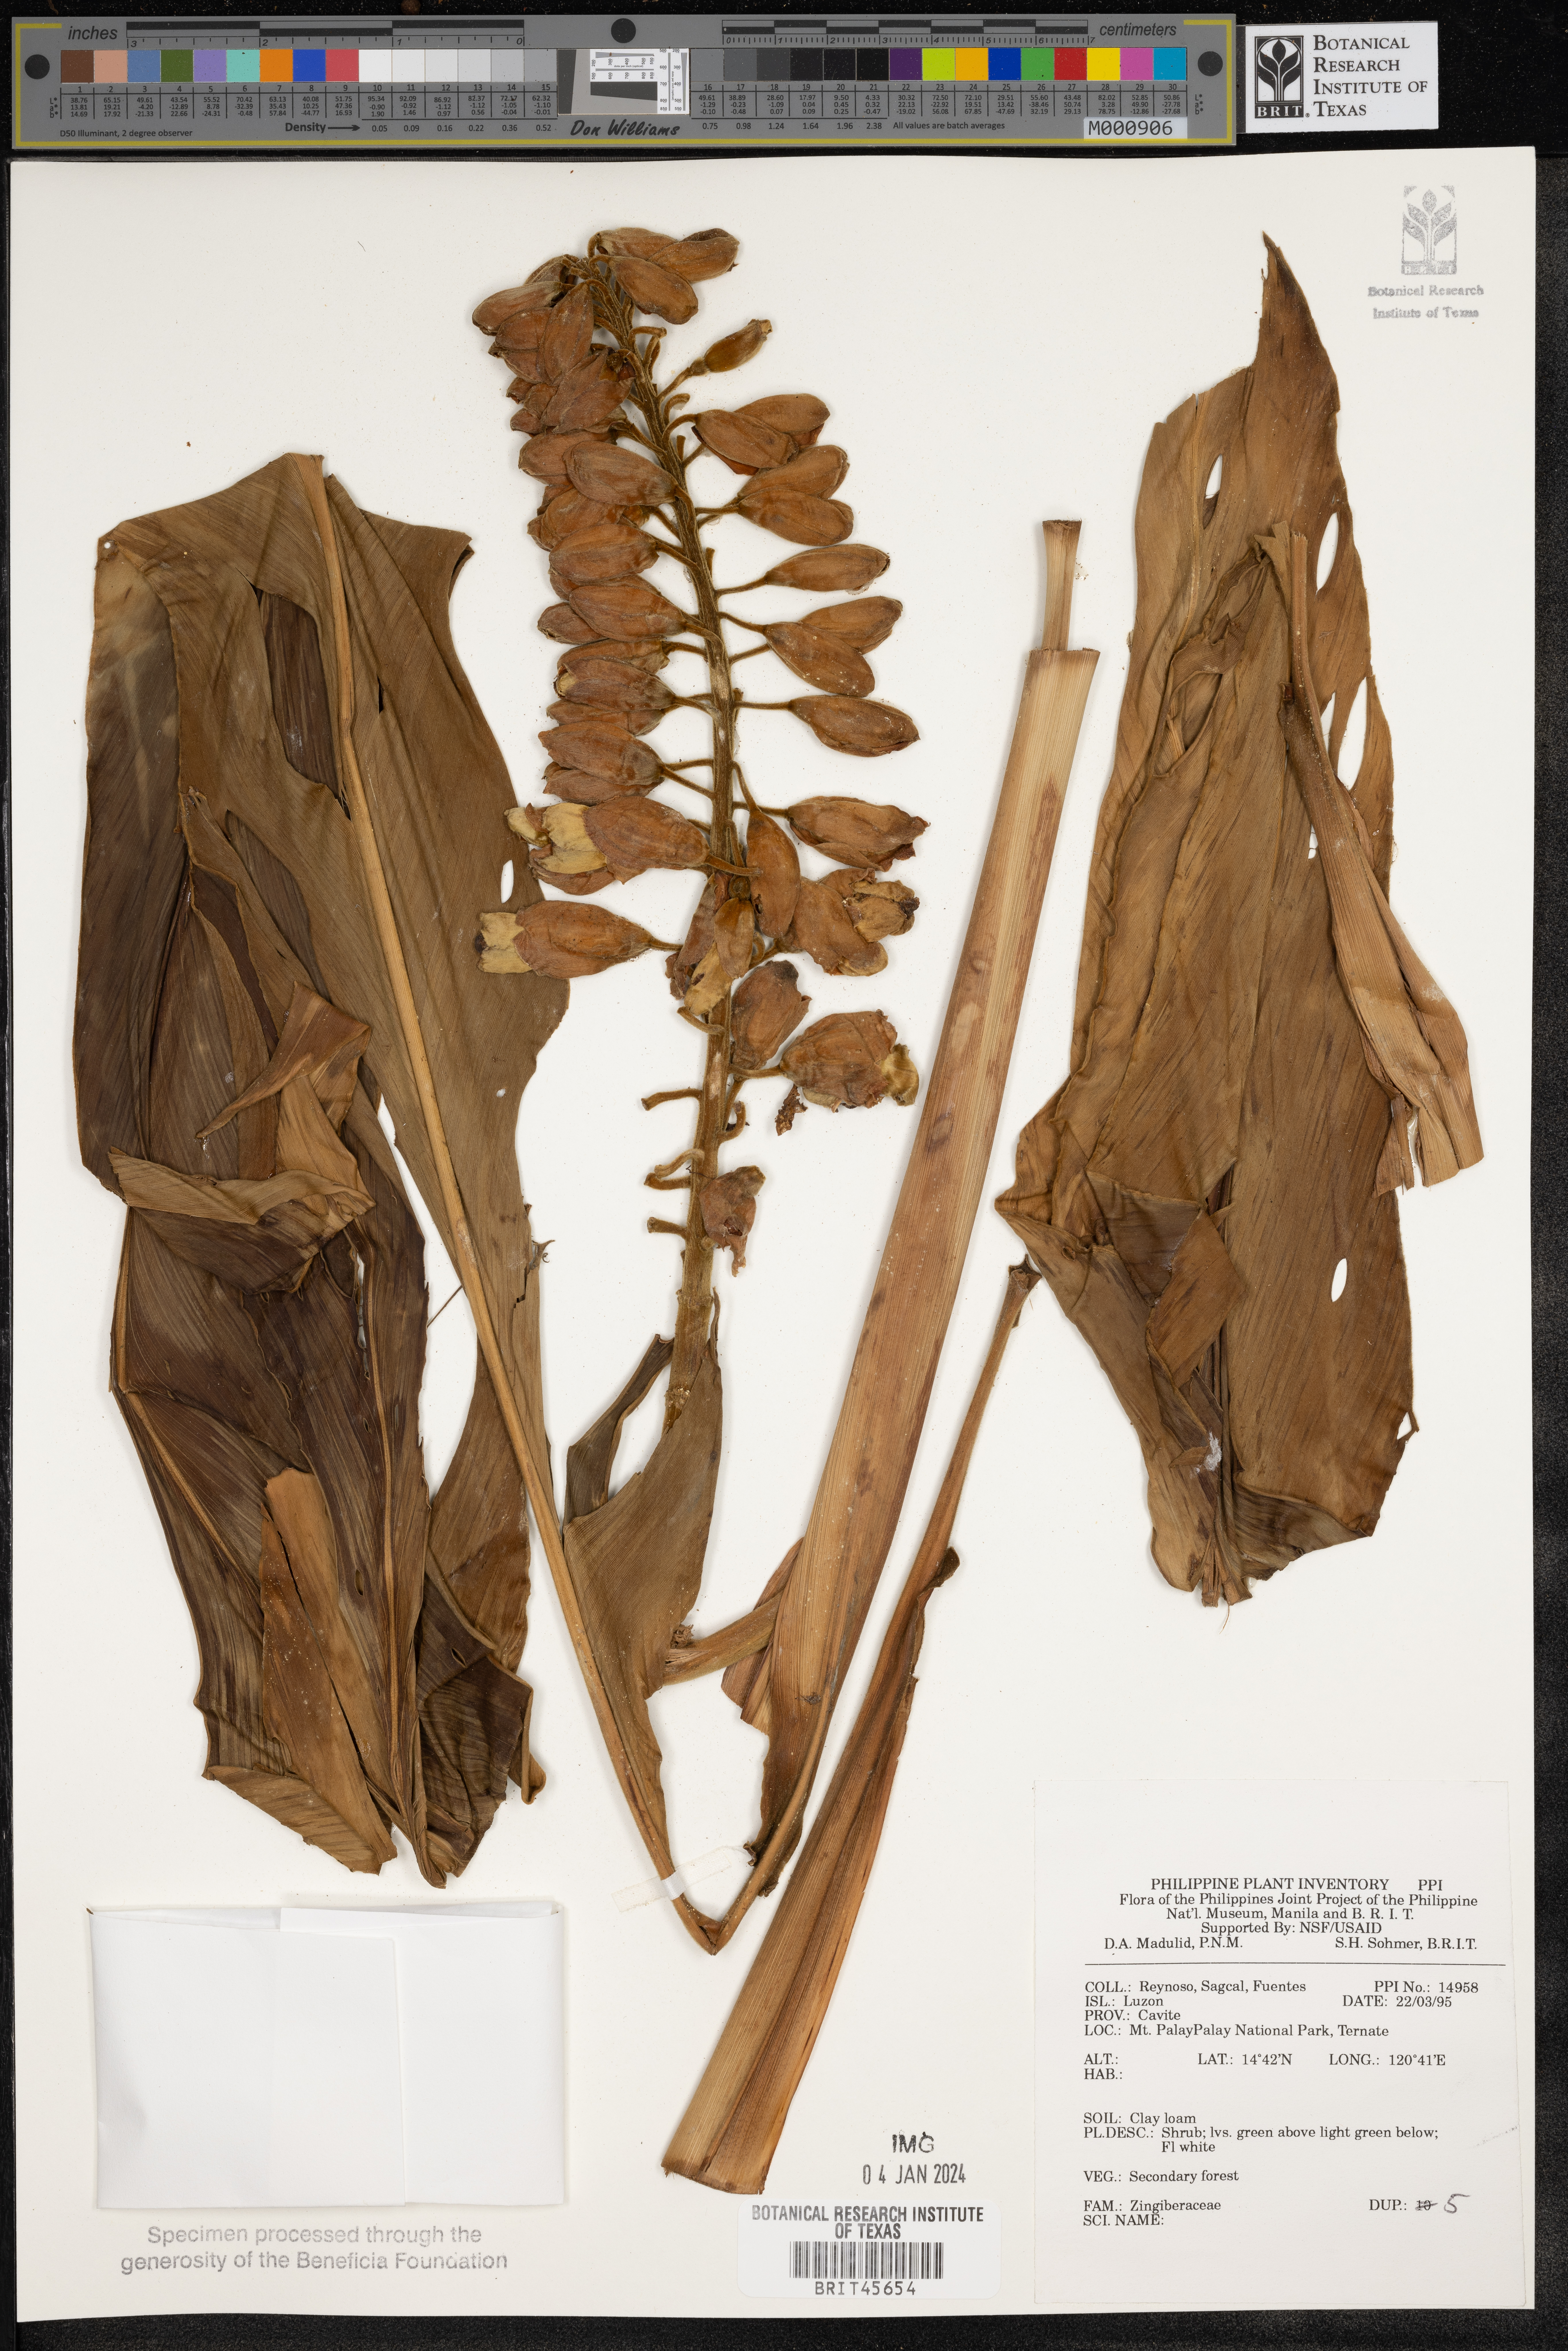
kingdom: Plantae
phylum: Tracheophyta
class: Liliopsida
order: Zingiberales
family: Zingiberaceae
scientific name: Zingiberaceae
